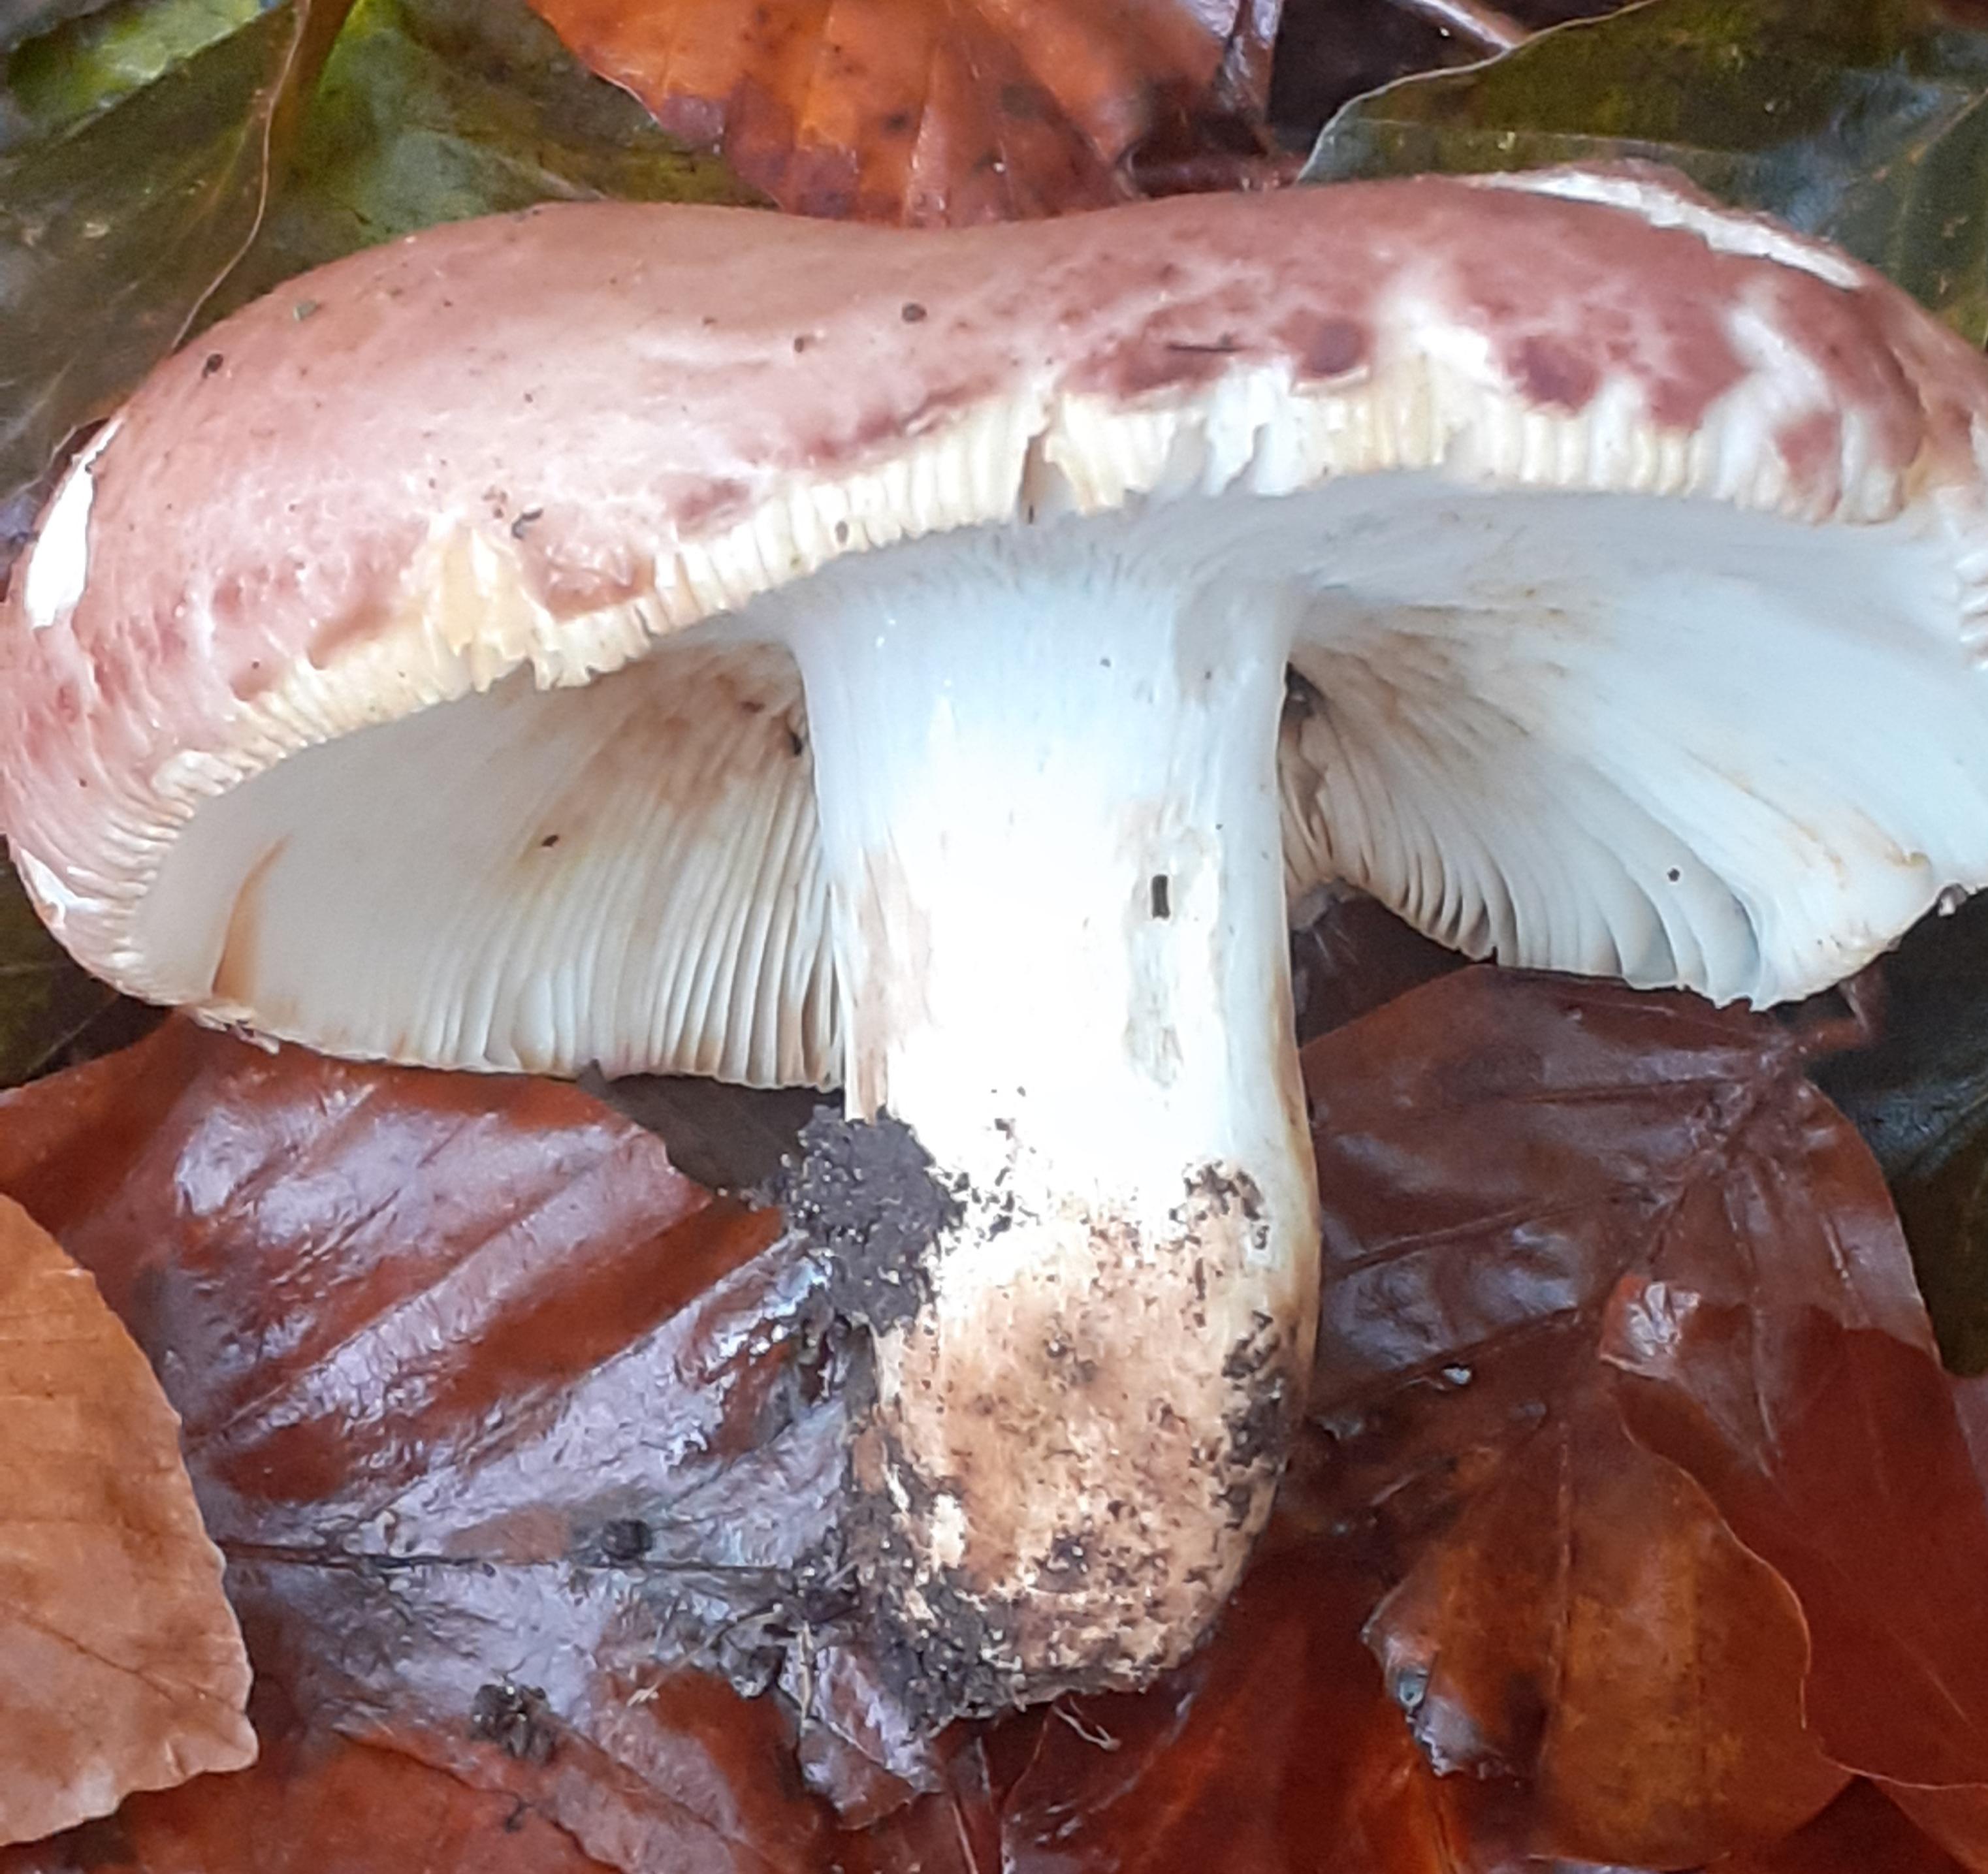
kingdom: Fungi
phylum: Basidiomycota
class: Agaricomycetes
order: Russulales
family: Russulaceae
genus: Russula
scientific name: Russula vesca
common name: spiselig skørhat
